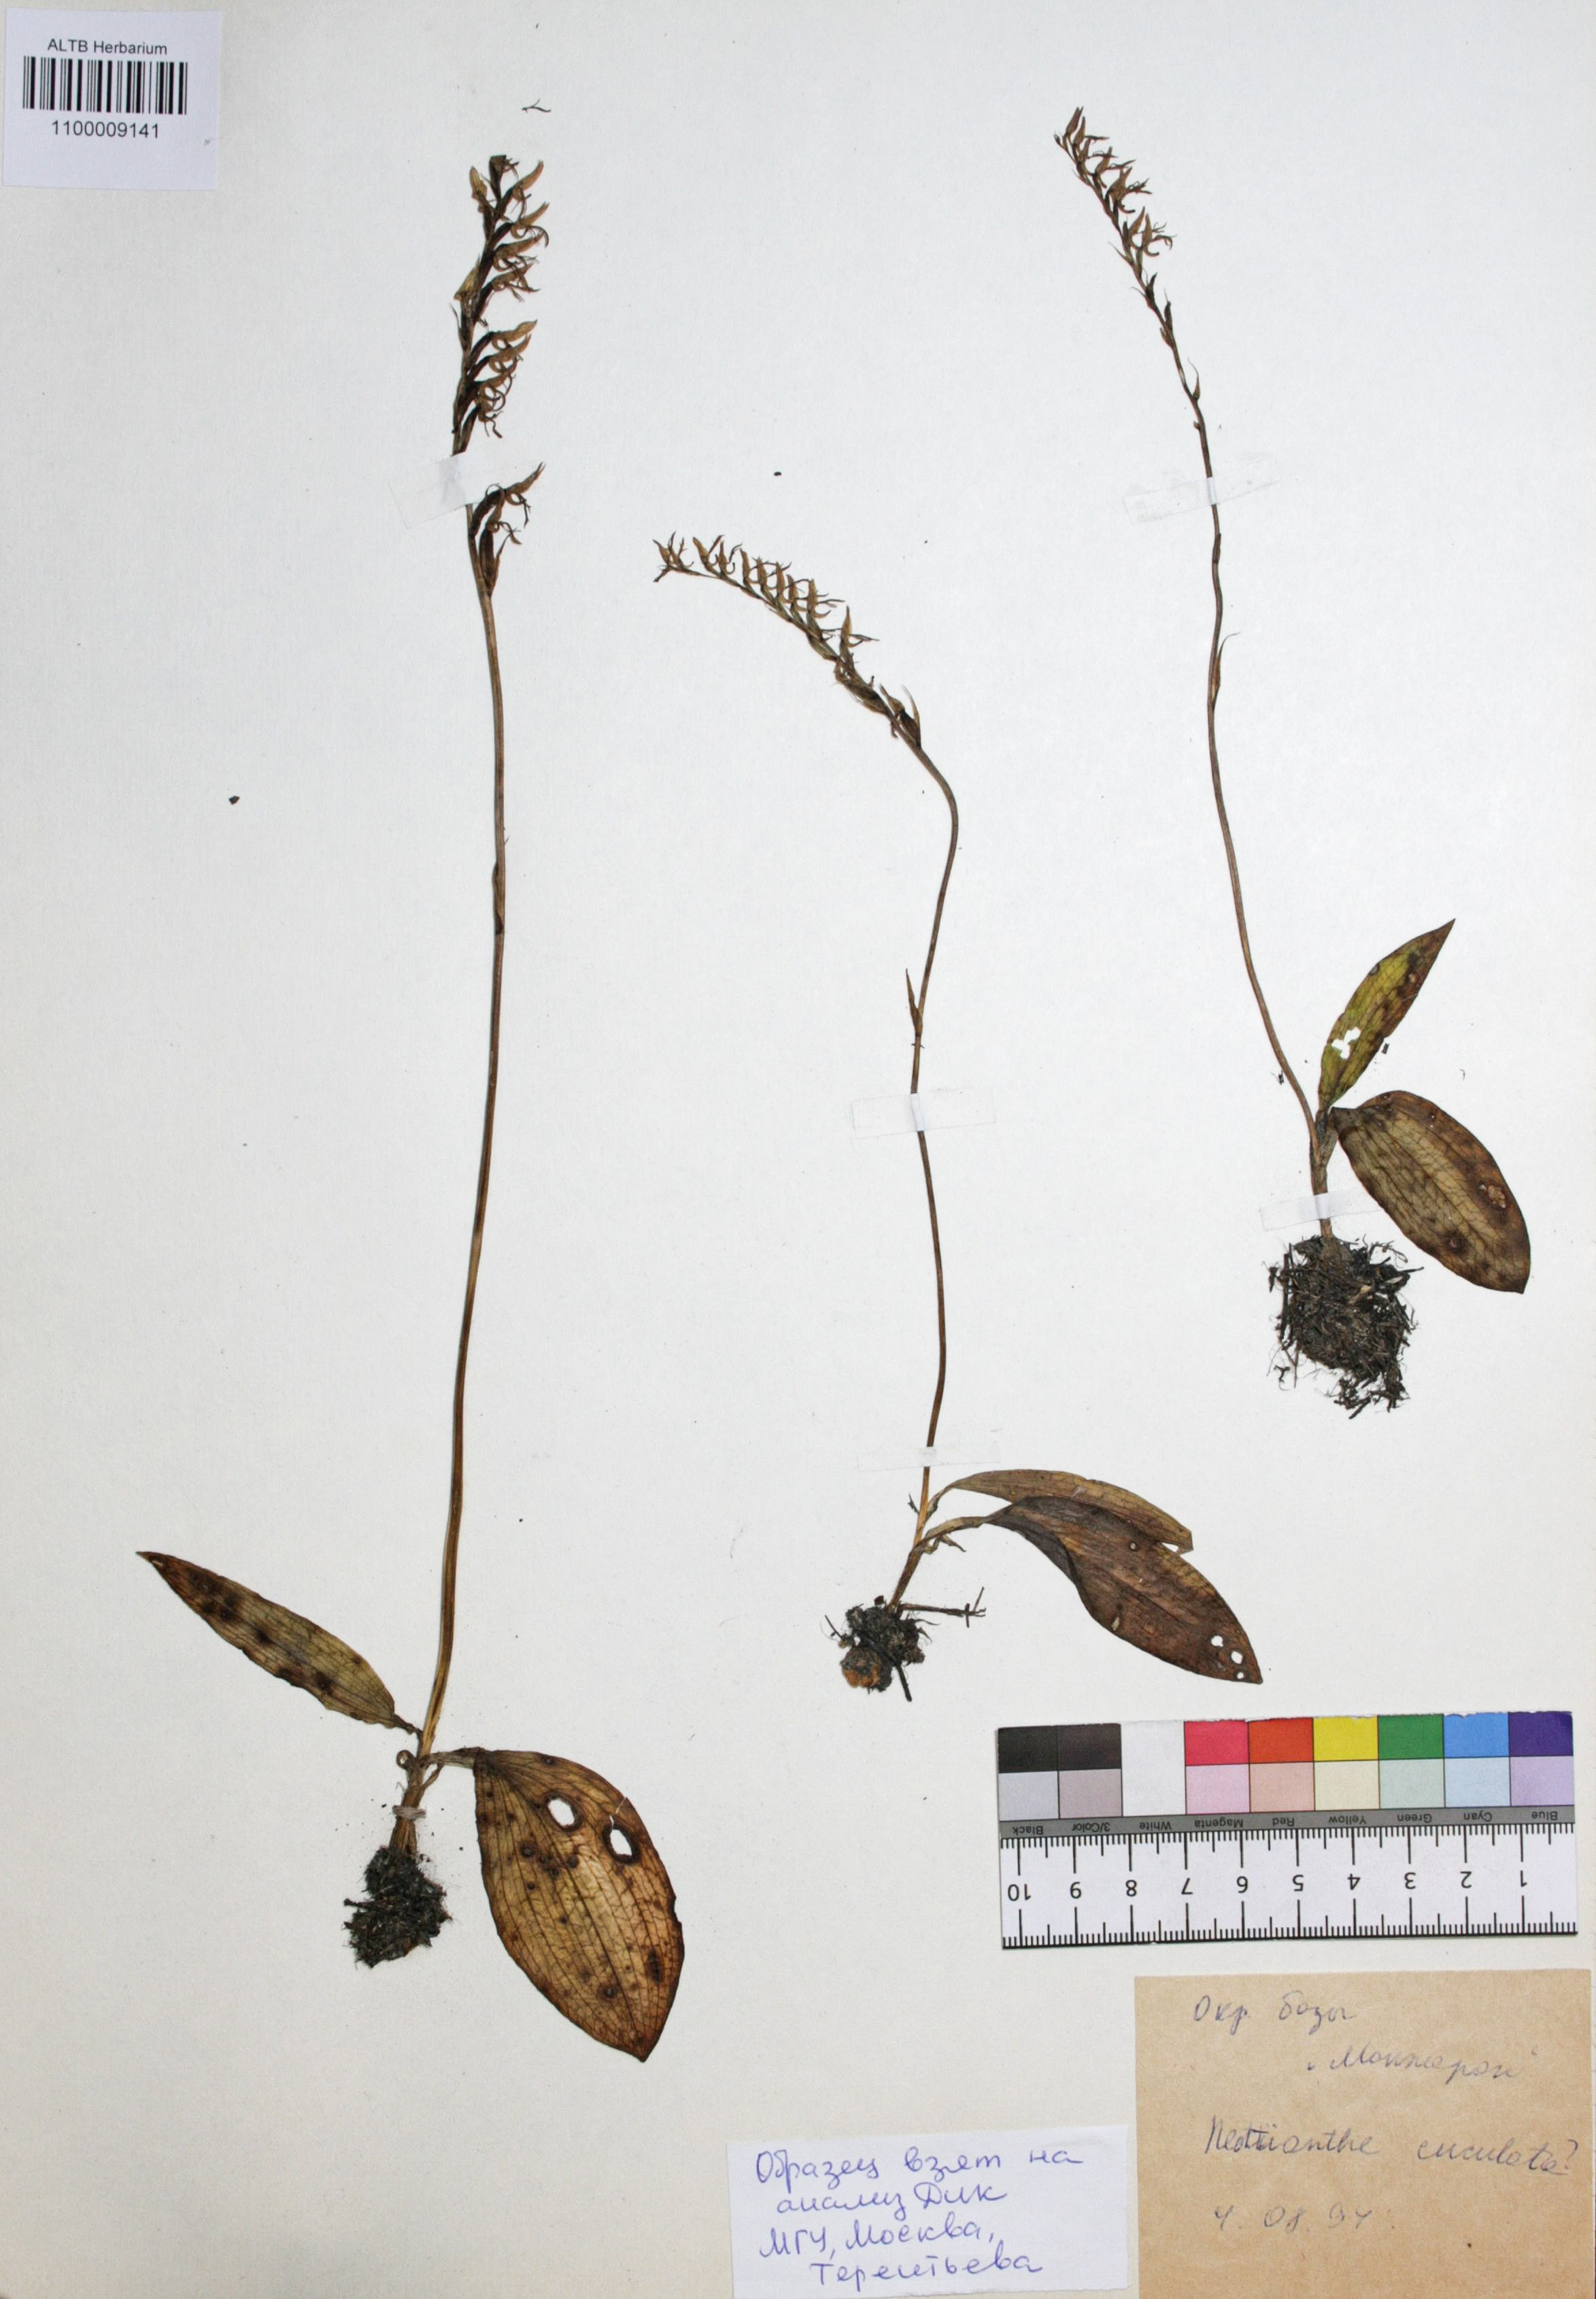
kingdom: Plantae
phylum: Tracheophyta
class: Liliopsida
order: Asparagales
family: Orchidaceae
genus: Hemipilia
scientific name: Hemipilia cucullata
